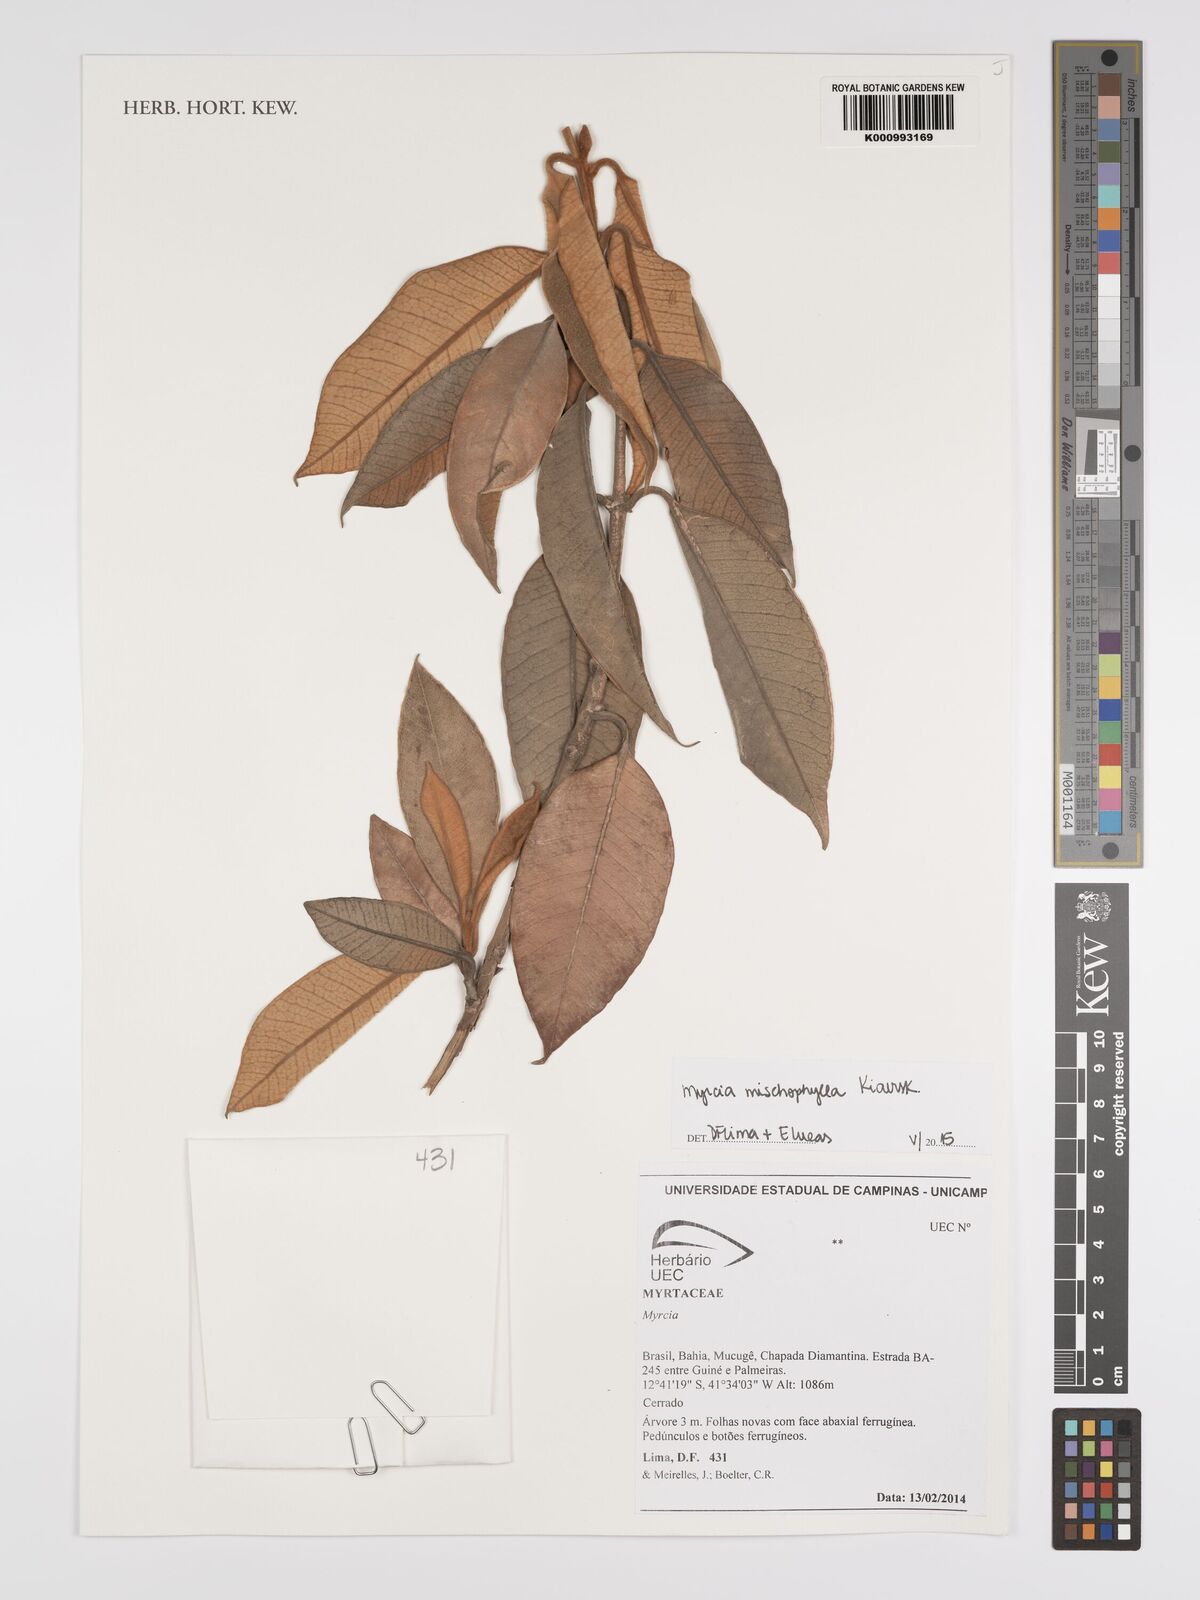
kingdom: Plantae
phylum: Tracheophyta
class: Magnoliopsida
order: Myrtales
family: Myrtaceae
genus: Myrcia
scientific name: Myrcia mischophylla
